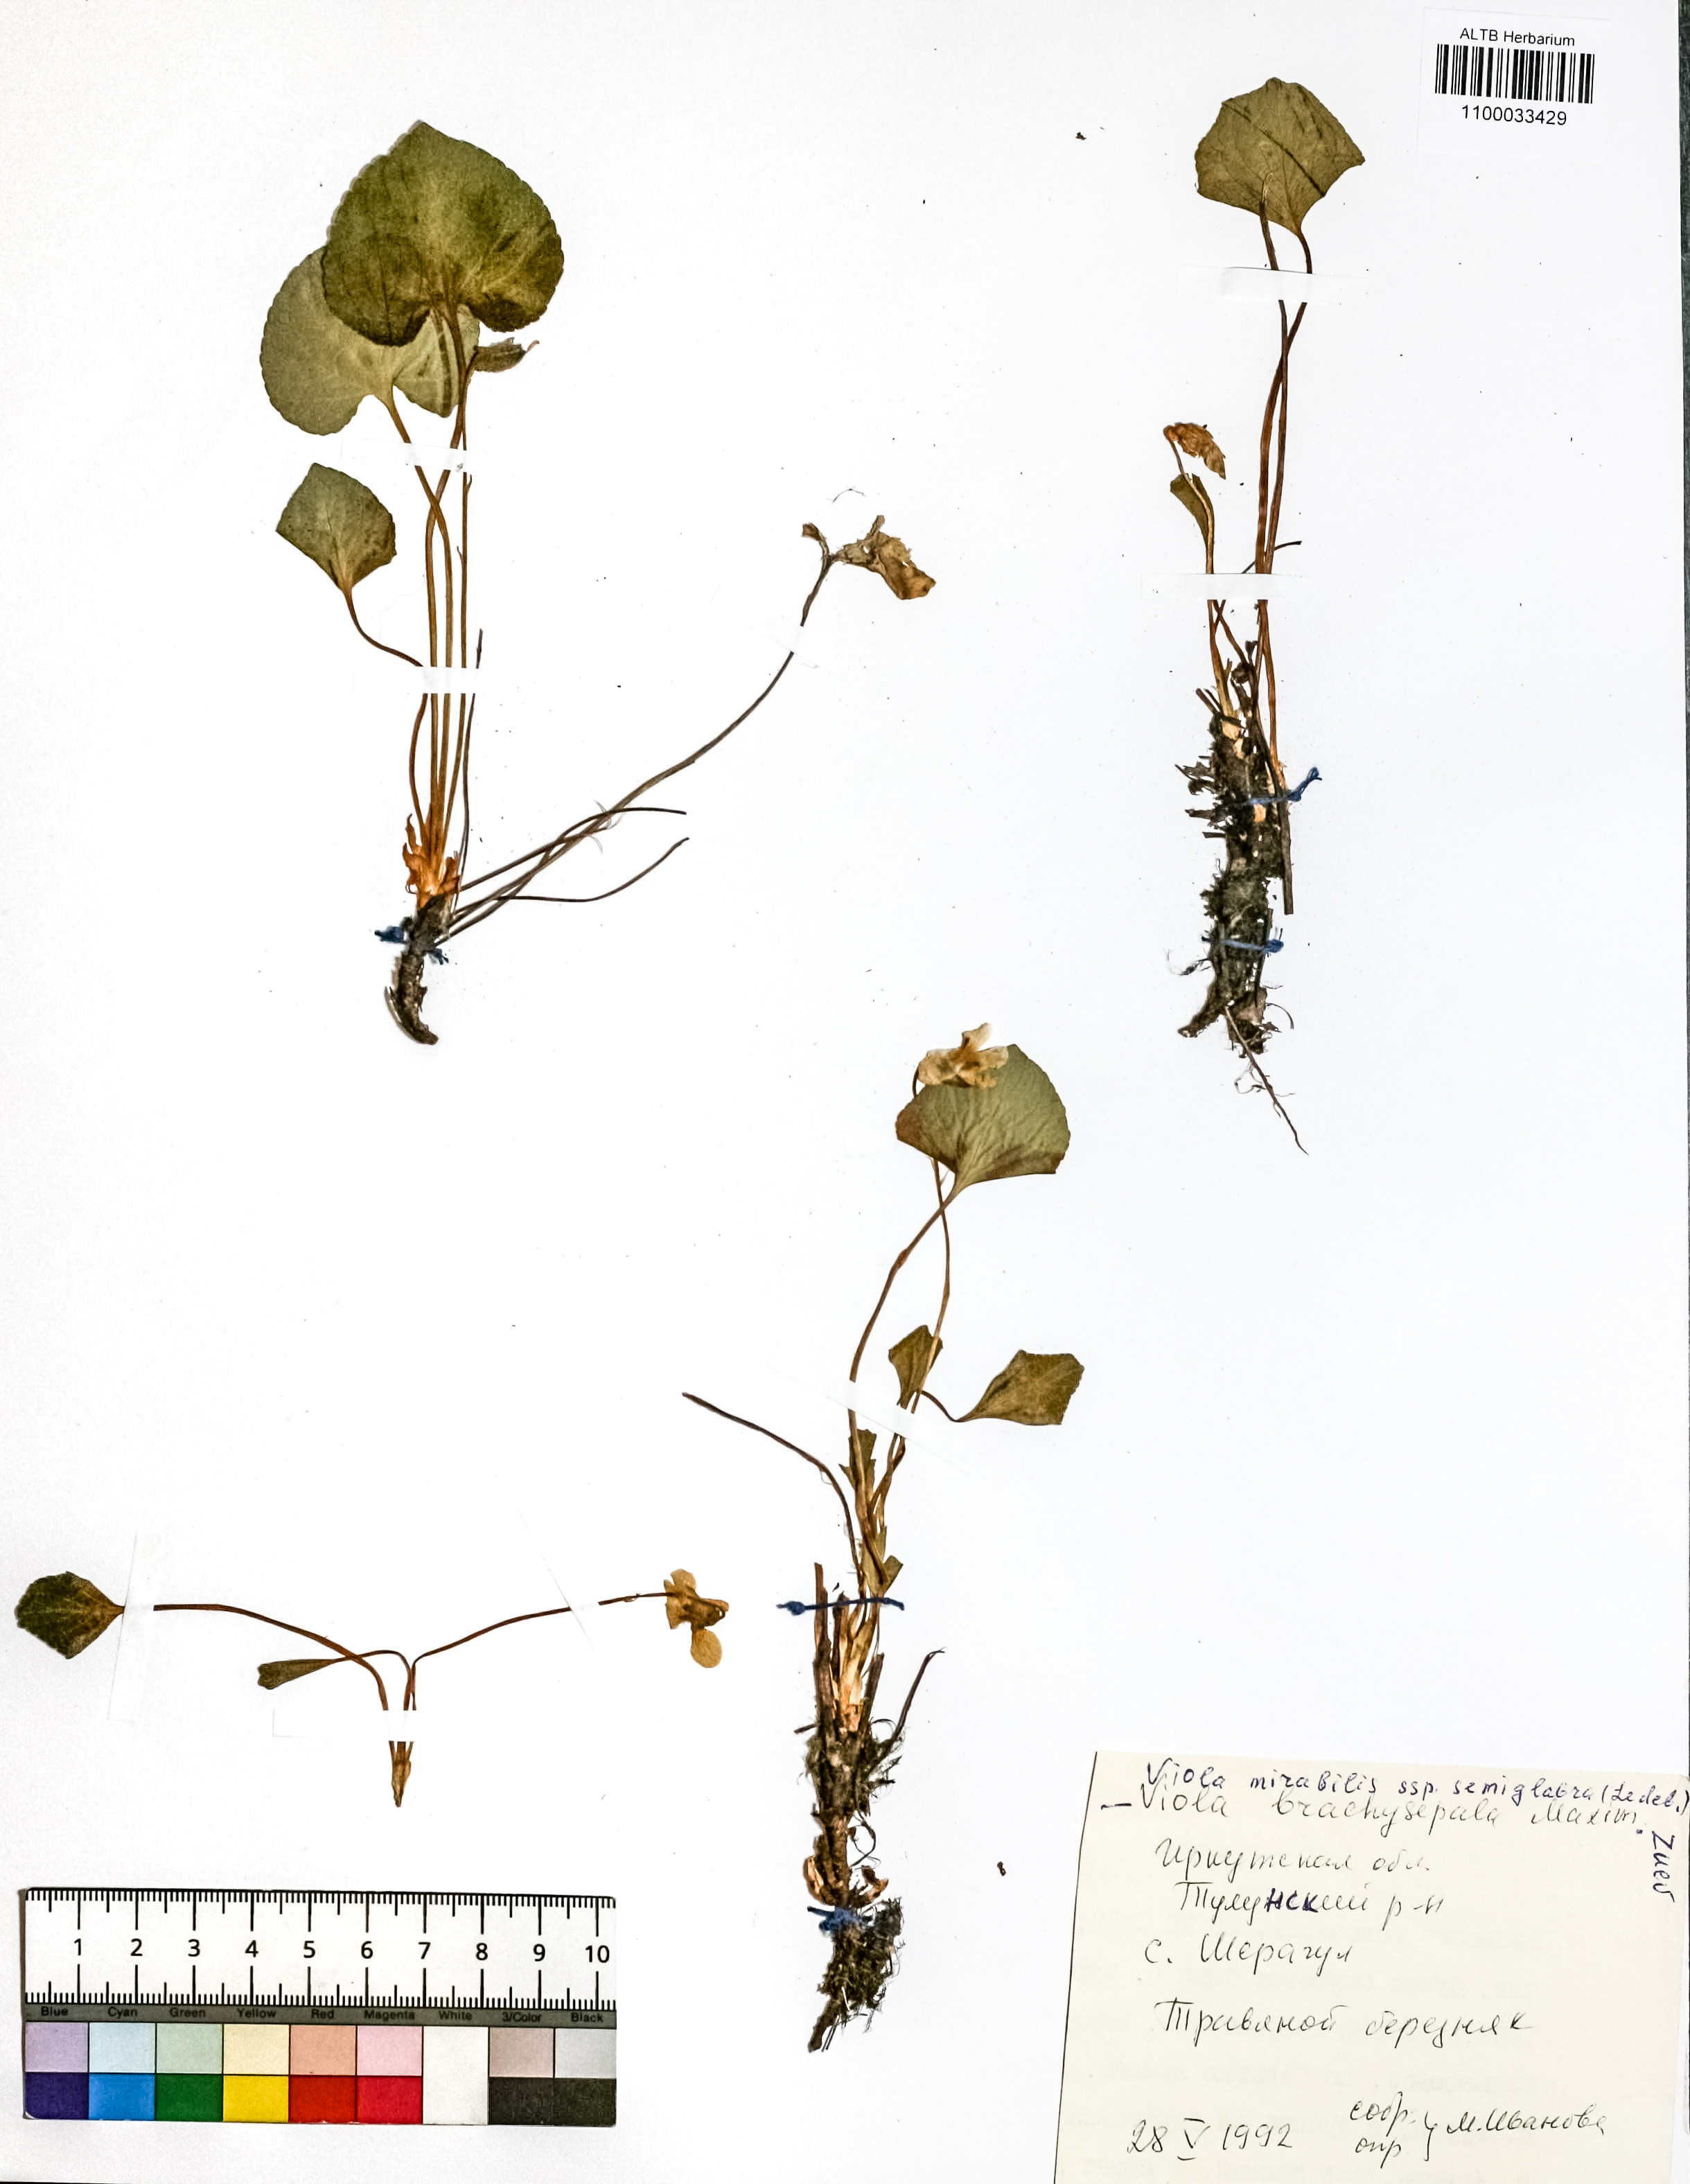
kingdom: Plantae
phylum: Tracheophyta
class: Magnoliopsida
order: Malpighiales
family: Violaceae
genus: Viola
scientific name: Viola mirabilis
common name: Wonder violet
